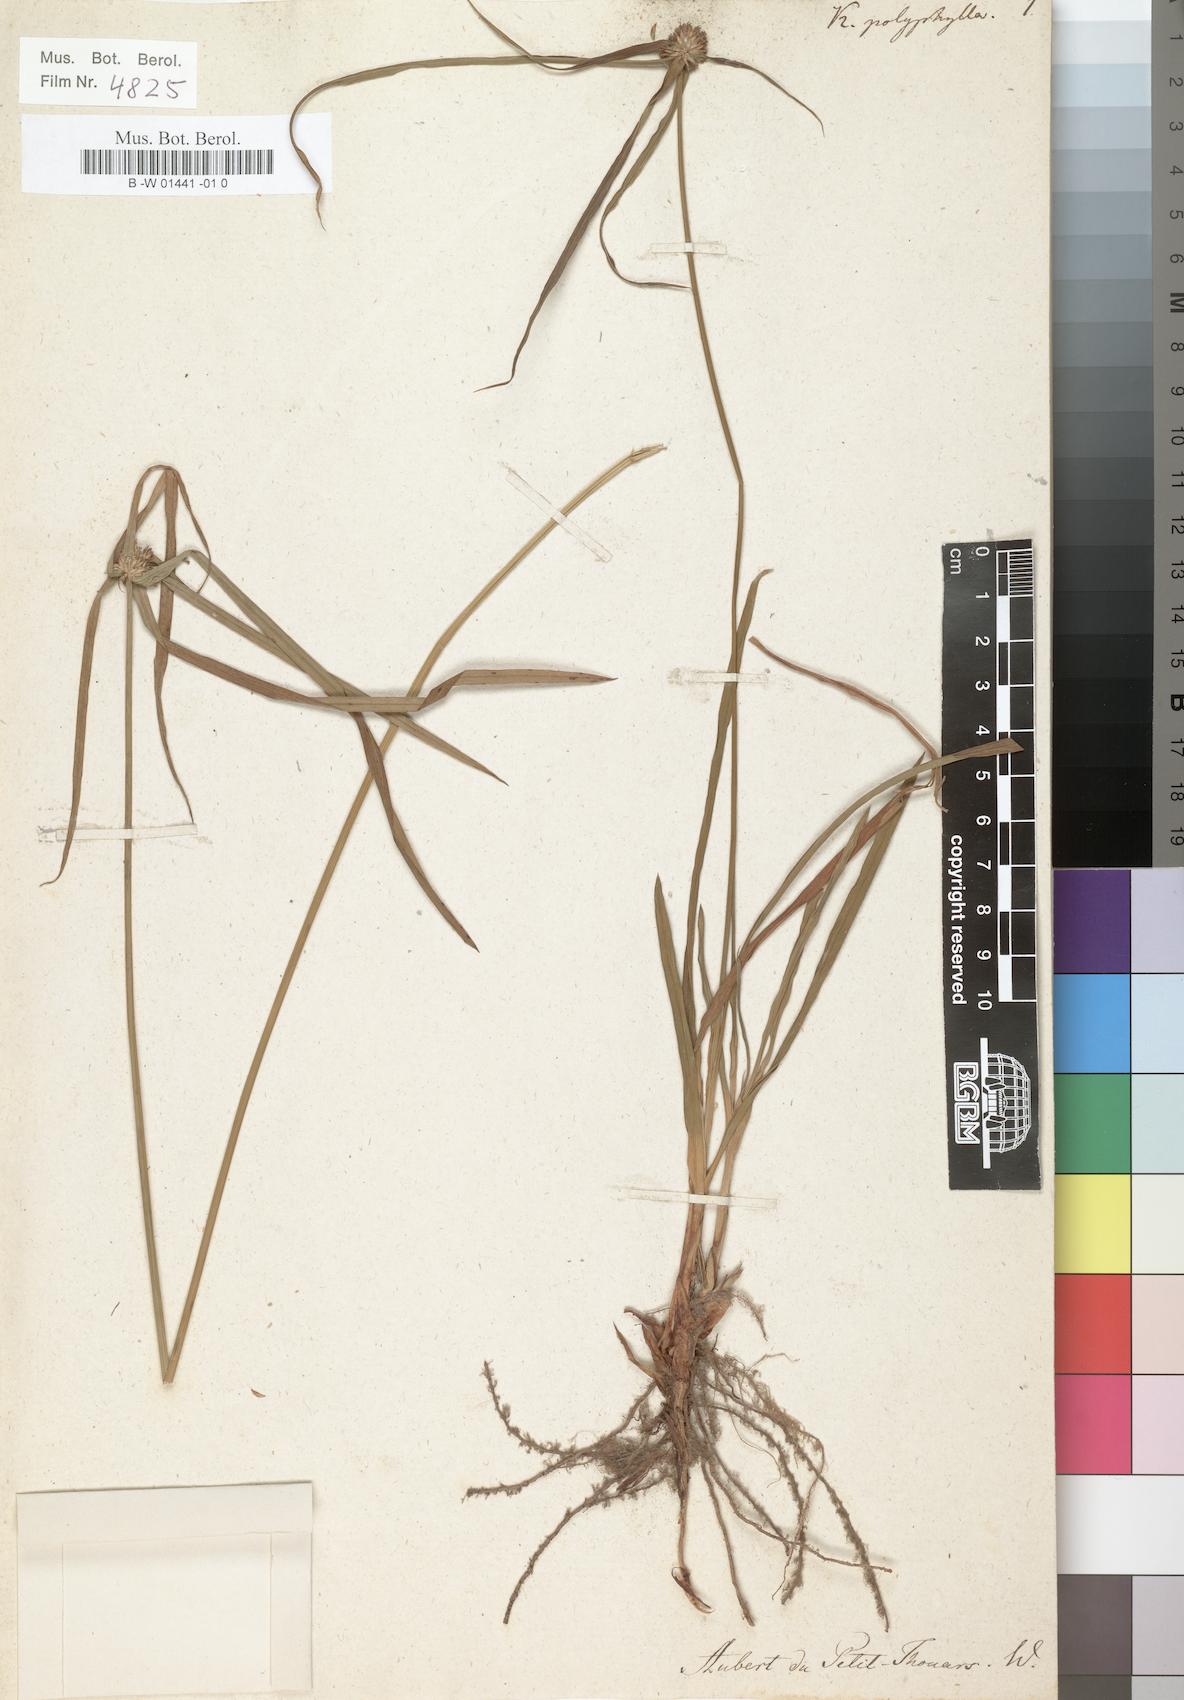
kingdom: Plantae
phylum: Tracheophyta
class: Liliopsida
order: Poales
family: Cyperaceae
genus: Cyperus
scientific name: Cyperus aromaticus
